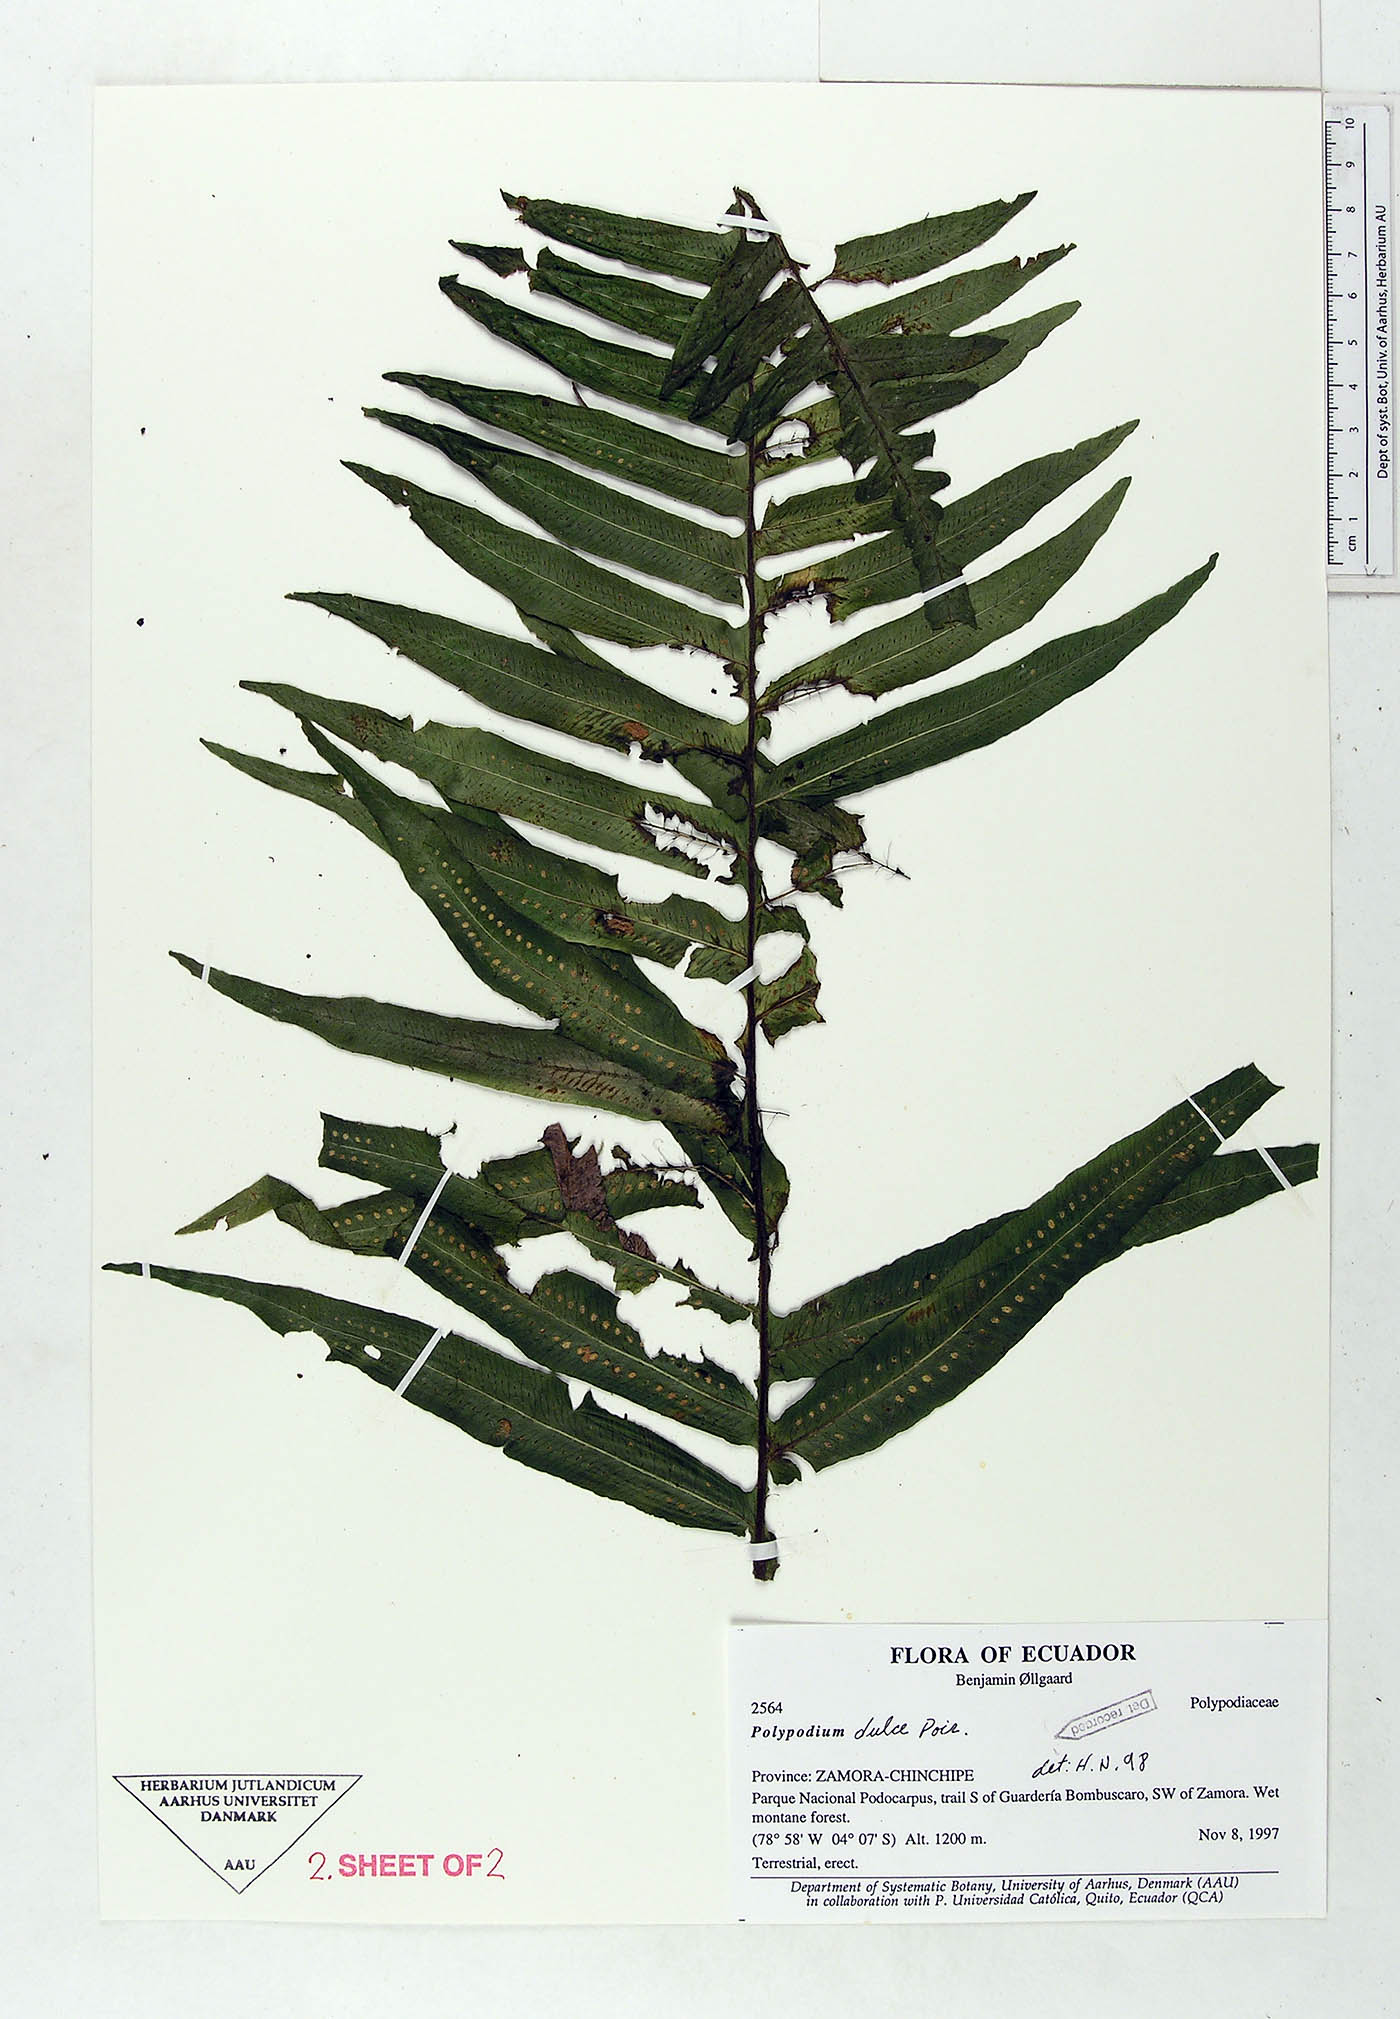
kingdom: Plantae
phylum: Tracheophyta
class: Polypodiopsida
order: Polypodiales
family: Polypodiaceae
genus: Pecluma
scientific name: Pecluma dulcis
